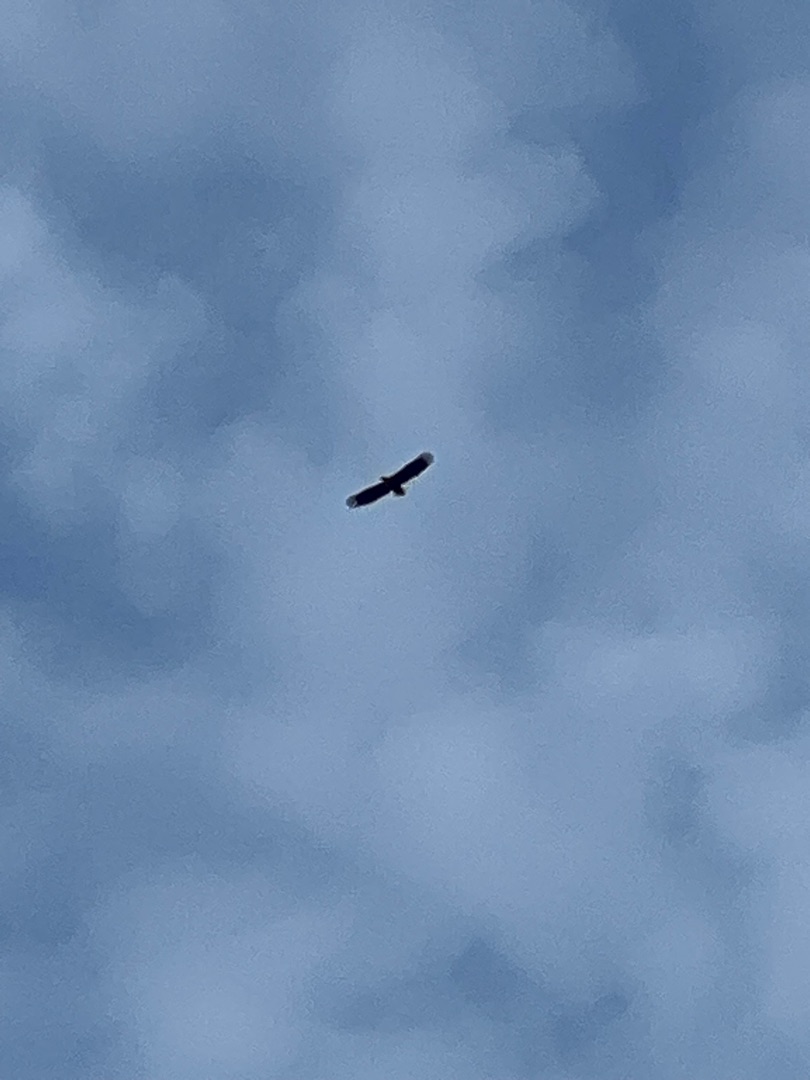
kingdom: Animalia
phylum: Chordata
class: Aves
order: Accipitriformes
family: Accipitridae
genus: Haliaeetus
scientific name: Haliaeetus albicilla
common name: Havørn
